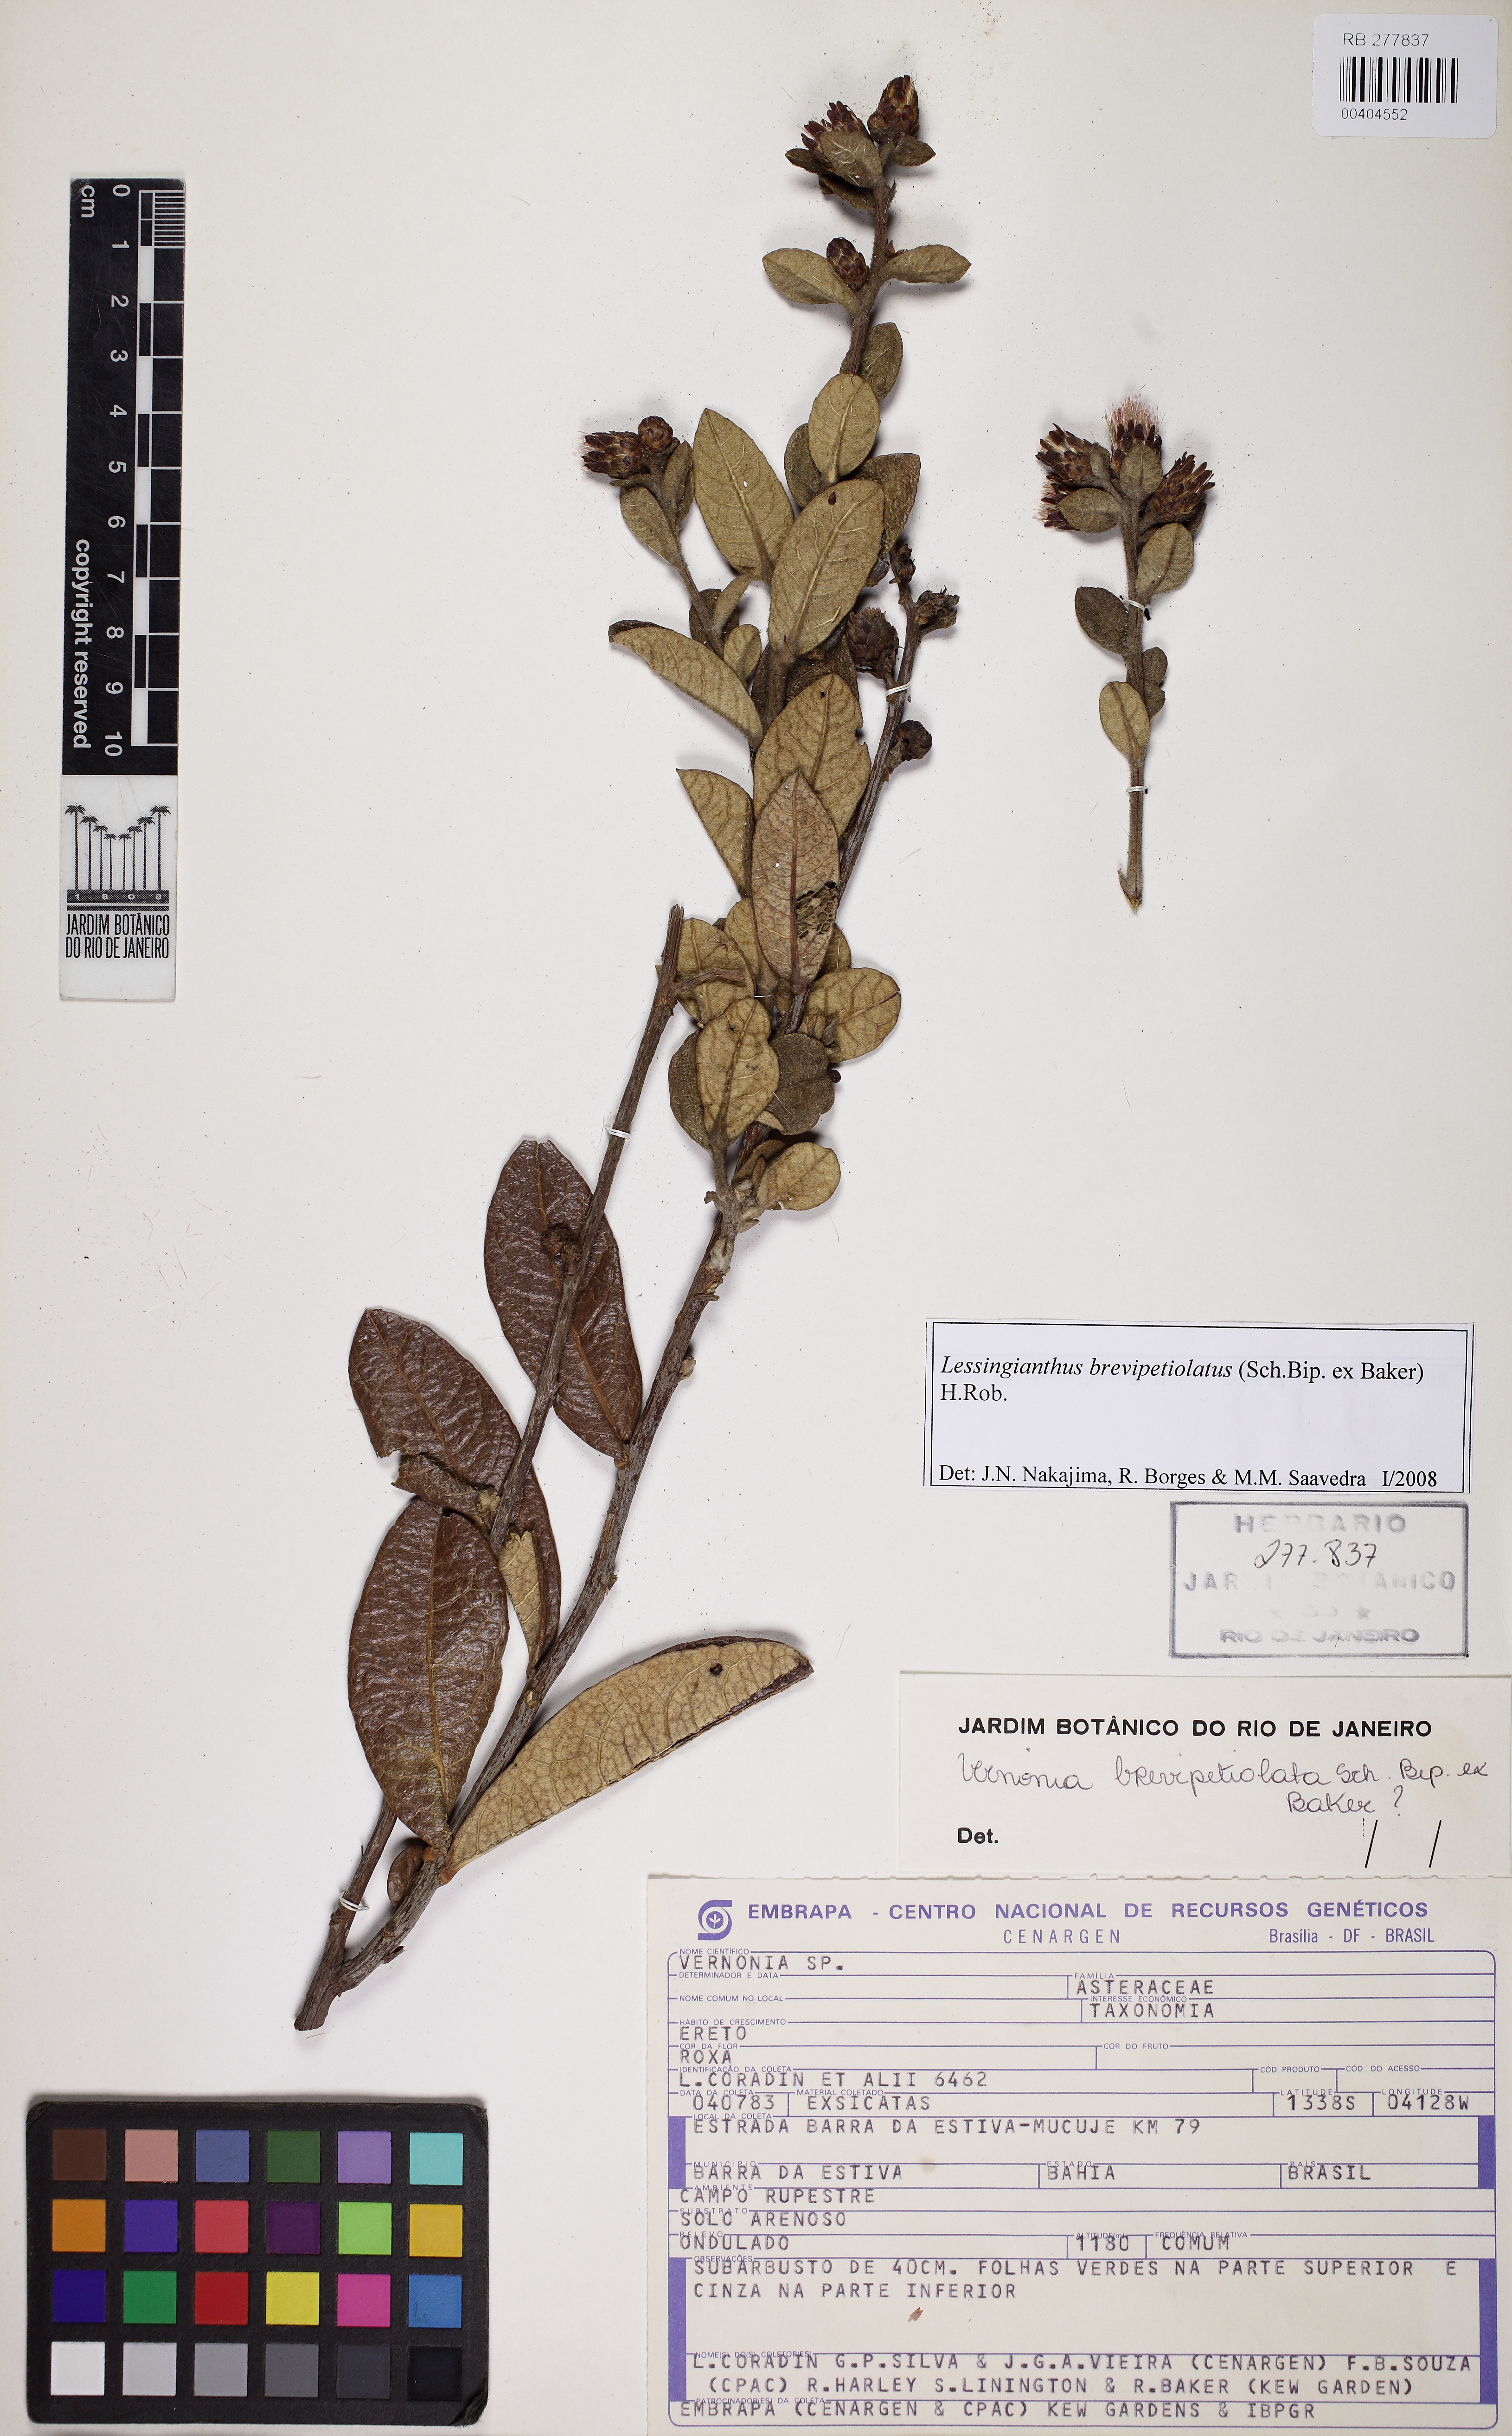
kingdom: Plantae
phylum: Tracheophyta
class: Magnoliopsida
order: Asterales
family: Asteraceae
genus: Lessingianthus
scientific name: Lessingianthus brevipetiolatus
